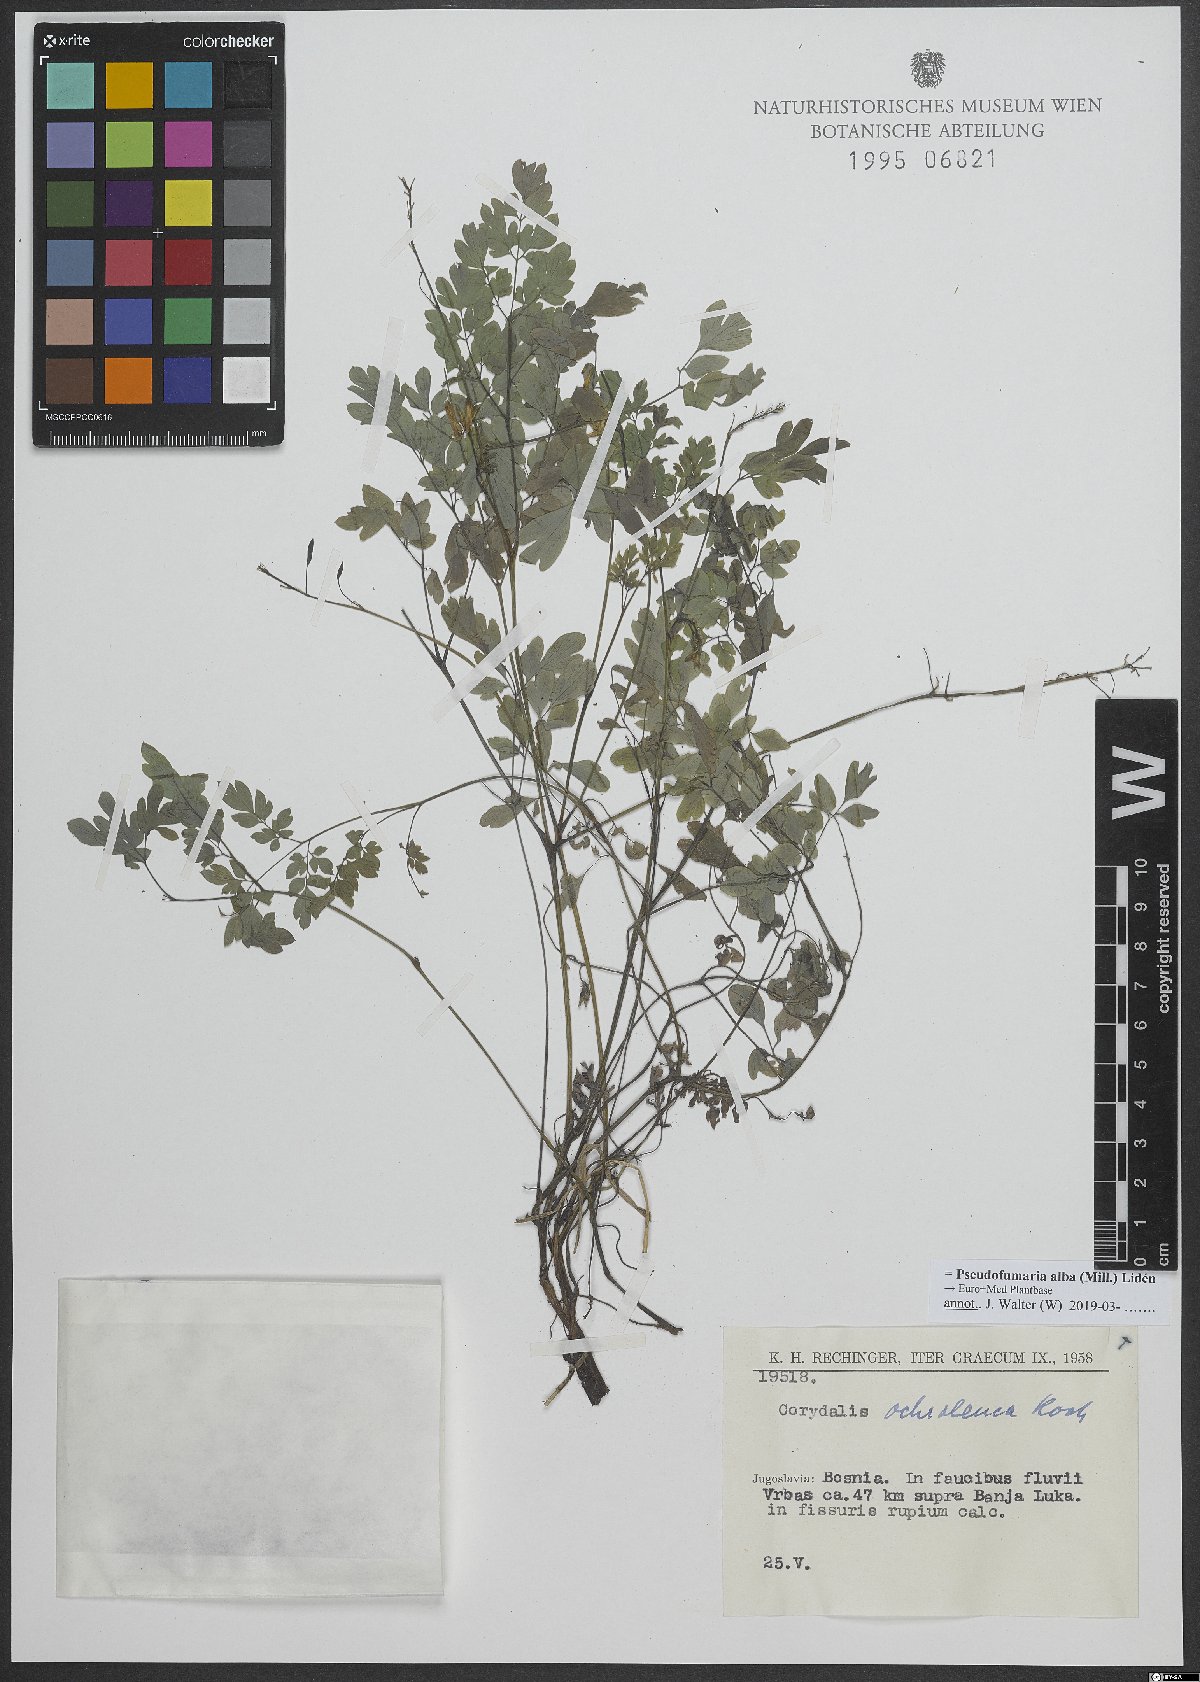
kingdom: Plantae
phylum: Tracheophyta
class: Magnoliopsida
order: Ranunculales
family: Papaveraceae
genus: Pseudofumaria
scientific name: Pseudofumaria alba
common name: Pale corydalis
